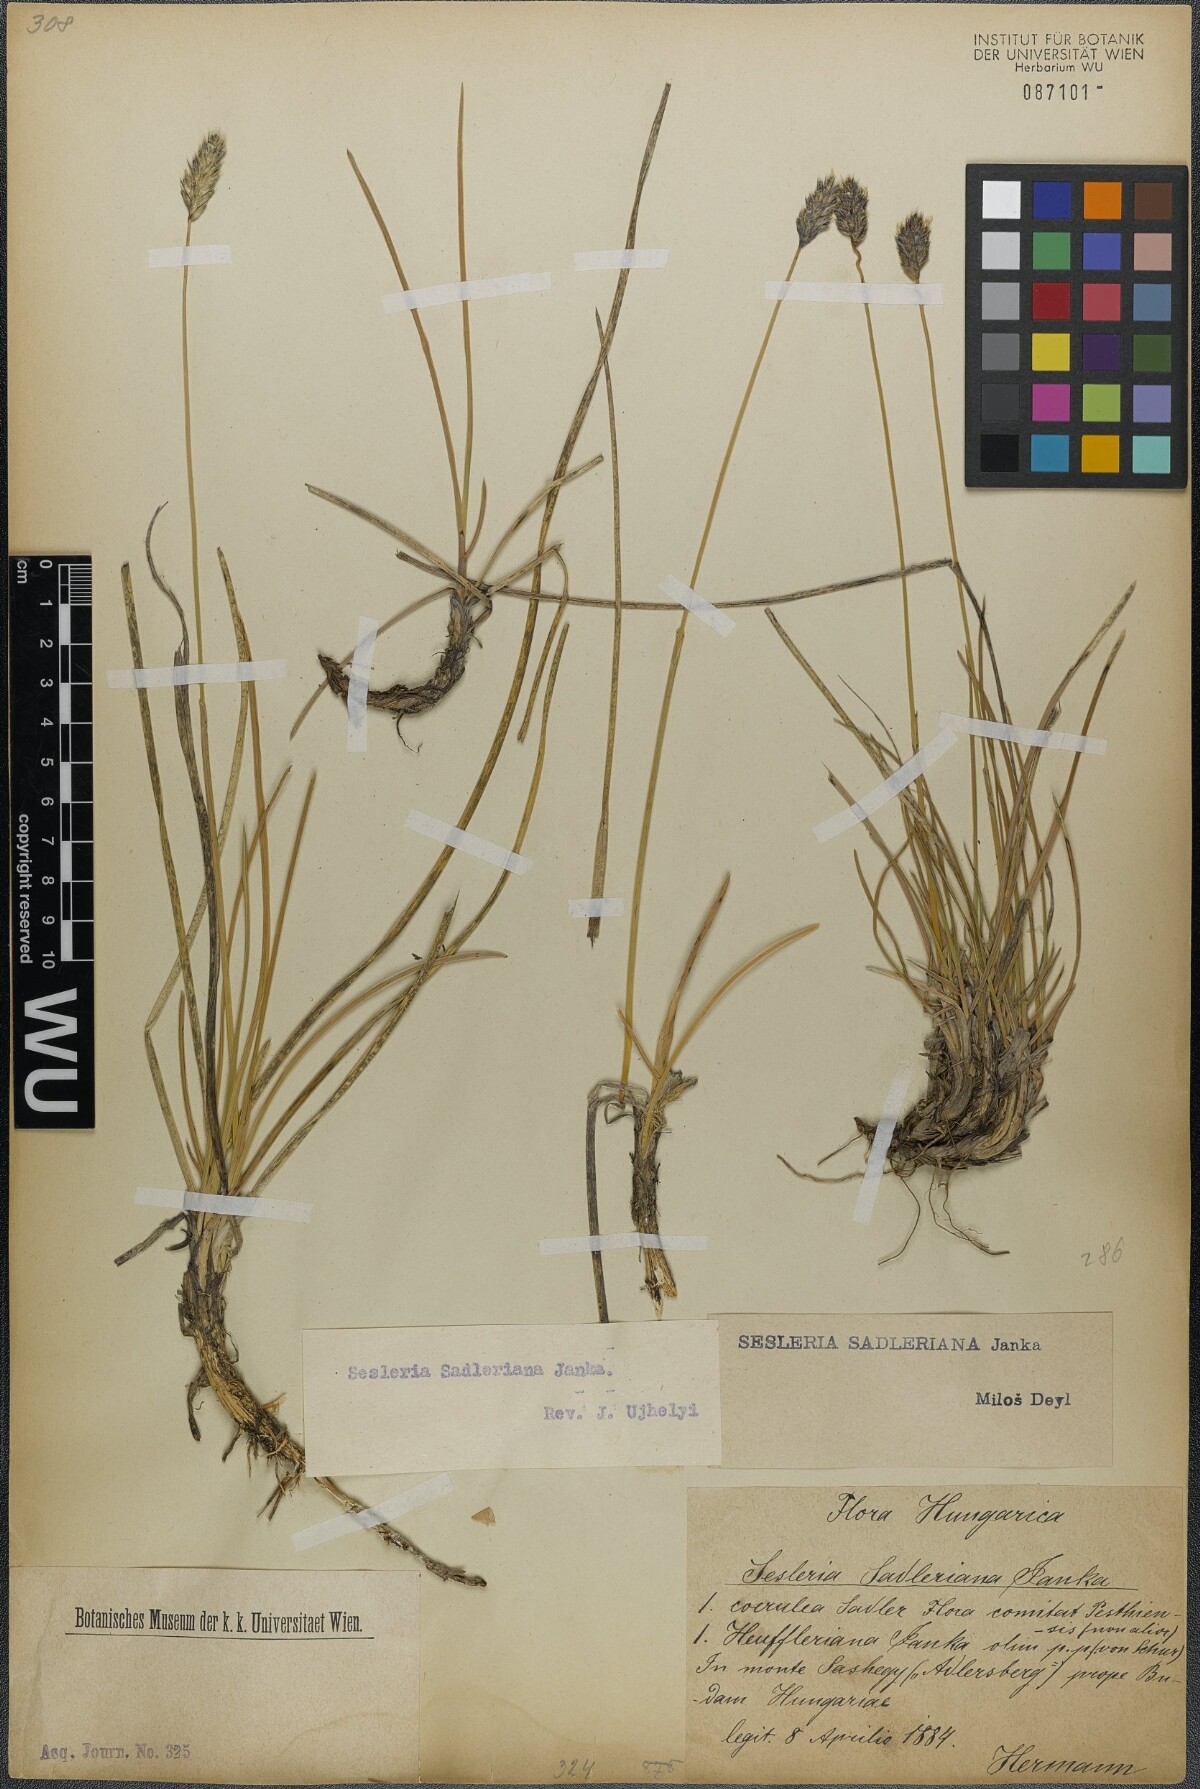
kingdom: Plantae
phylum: Tracheophyta
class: Liliopsida
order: Poales
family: Poaceae
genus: Sesleria
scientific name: Sesleria sadleriana
